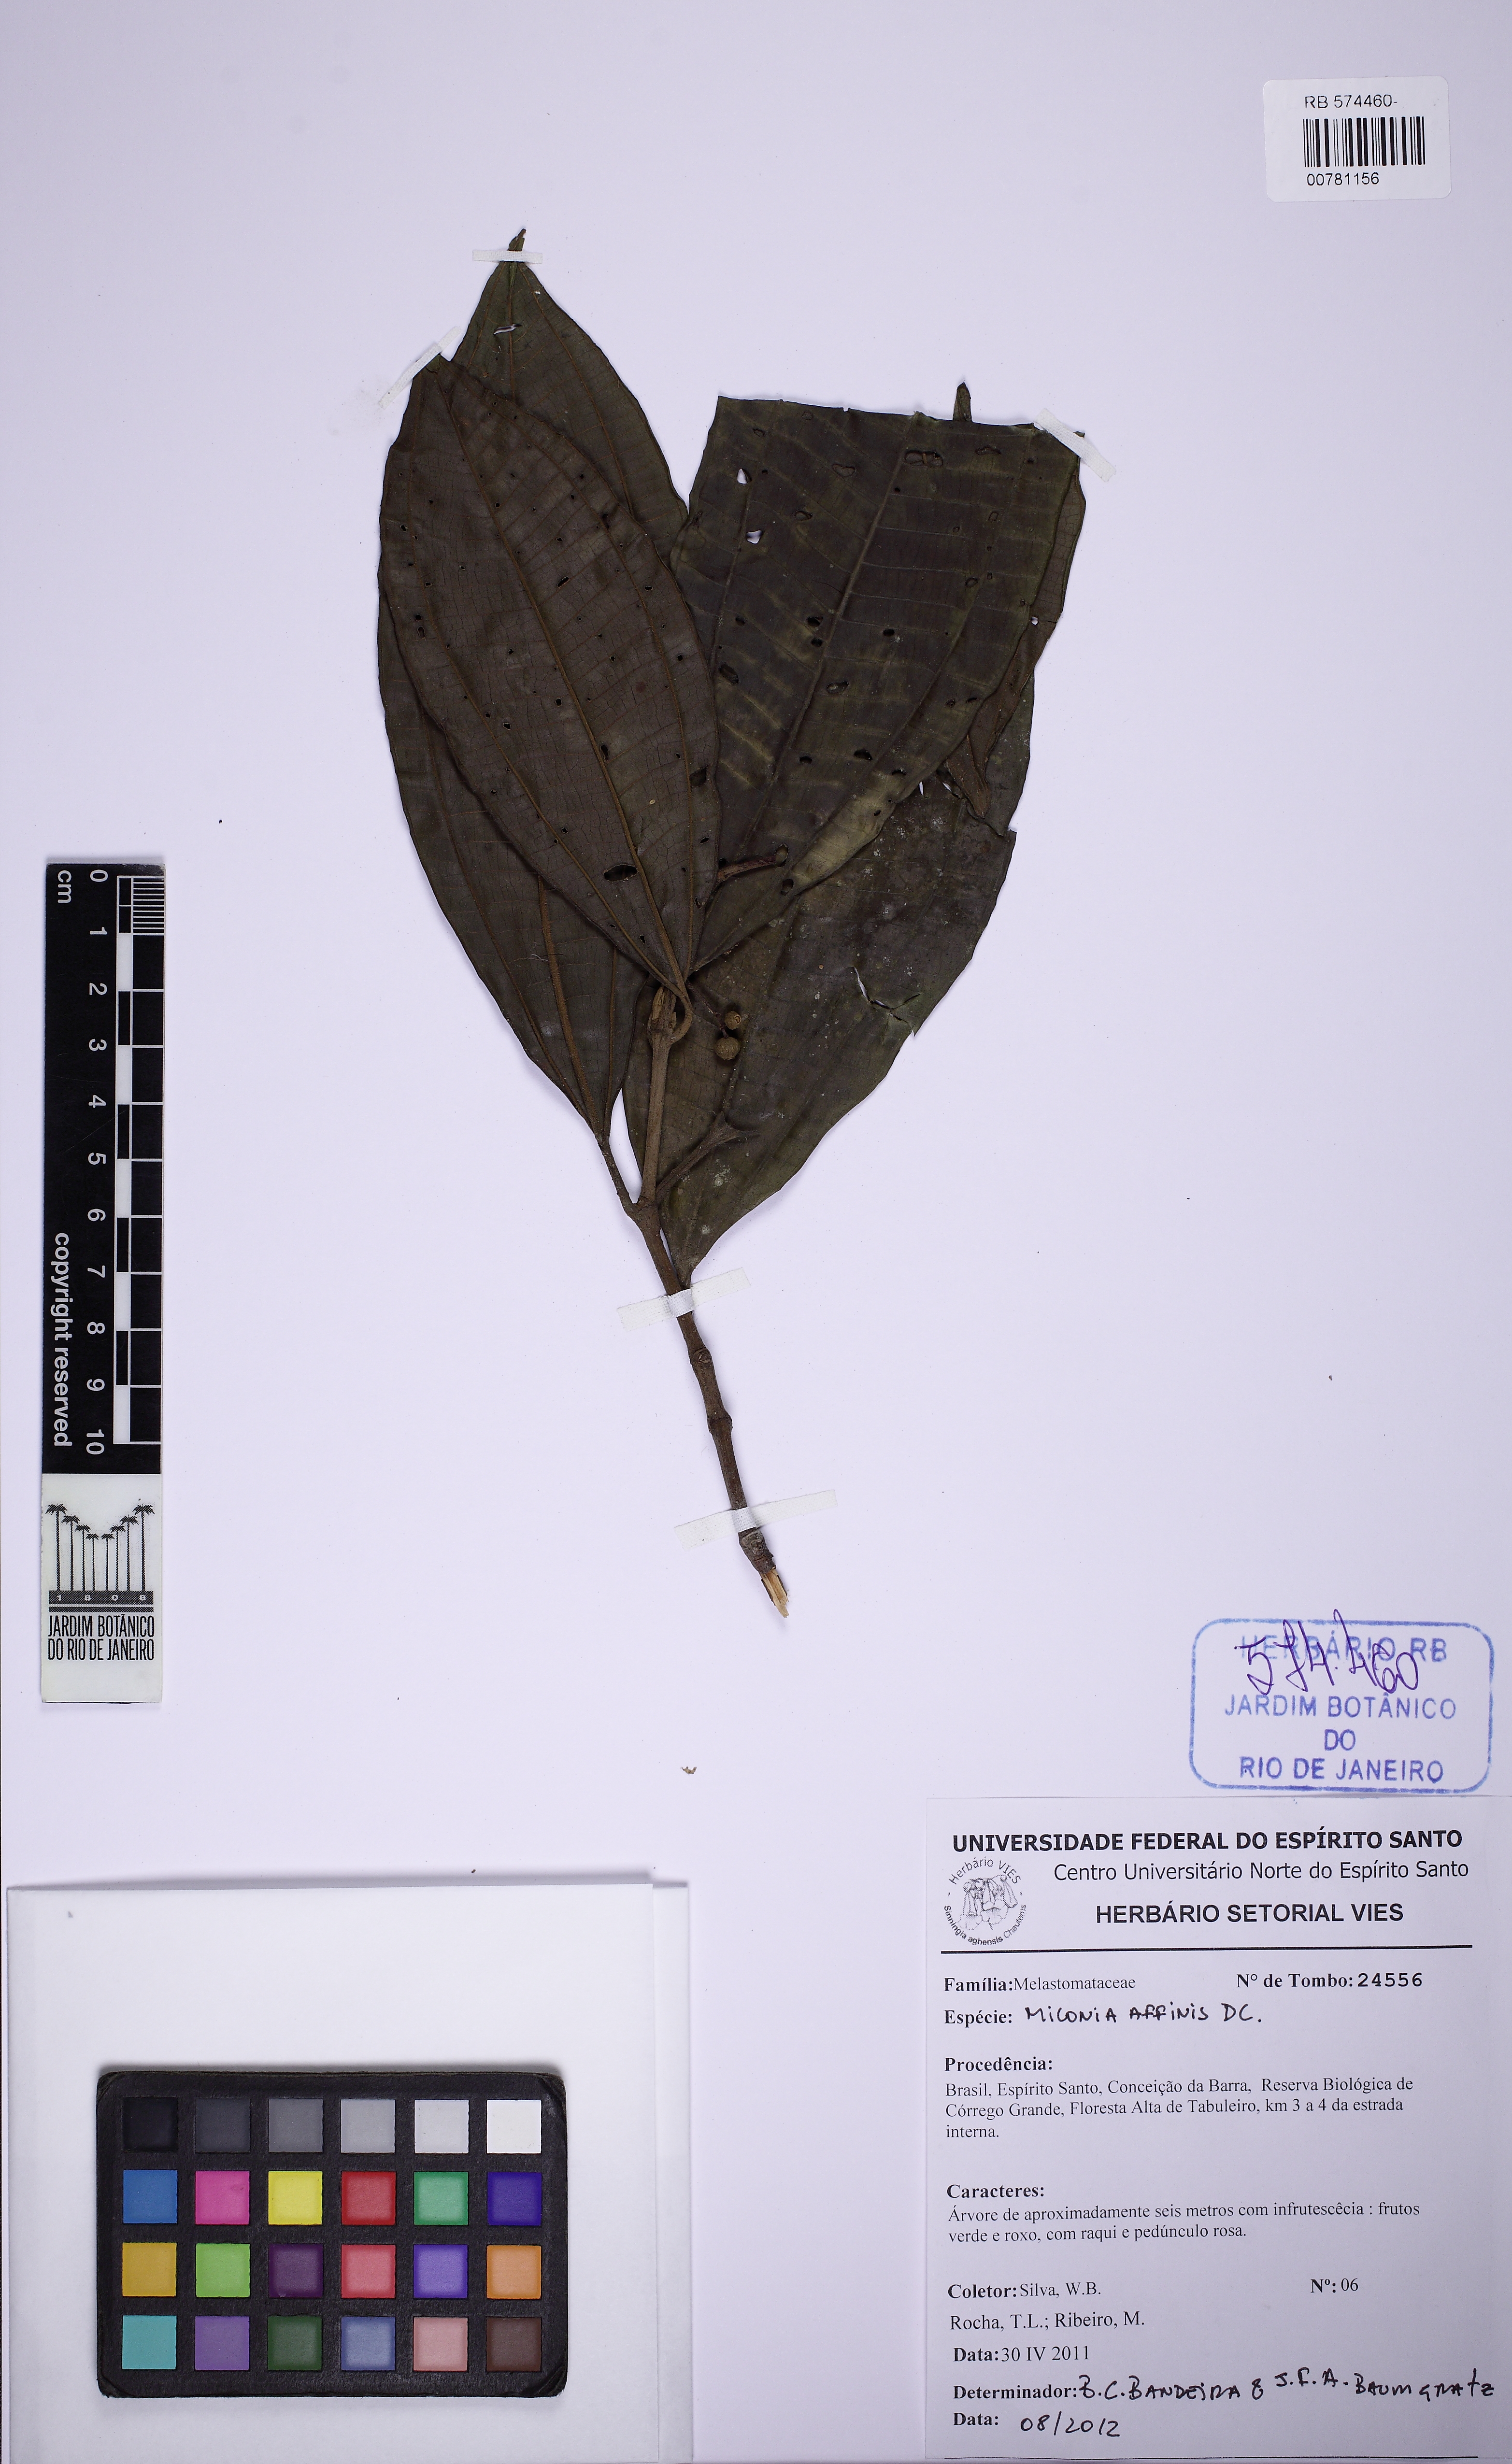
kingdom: Plantae
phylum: Tracheophyta
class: Magnoliopsida
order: Myrtales
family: Melastomataceae
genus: Miconia
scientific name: Miconia affinis
